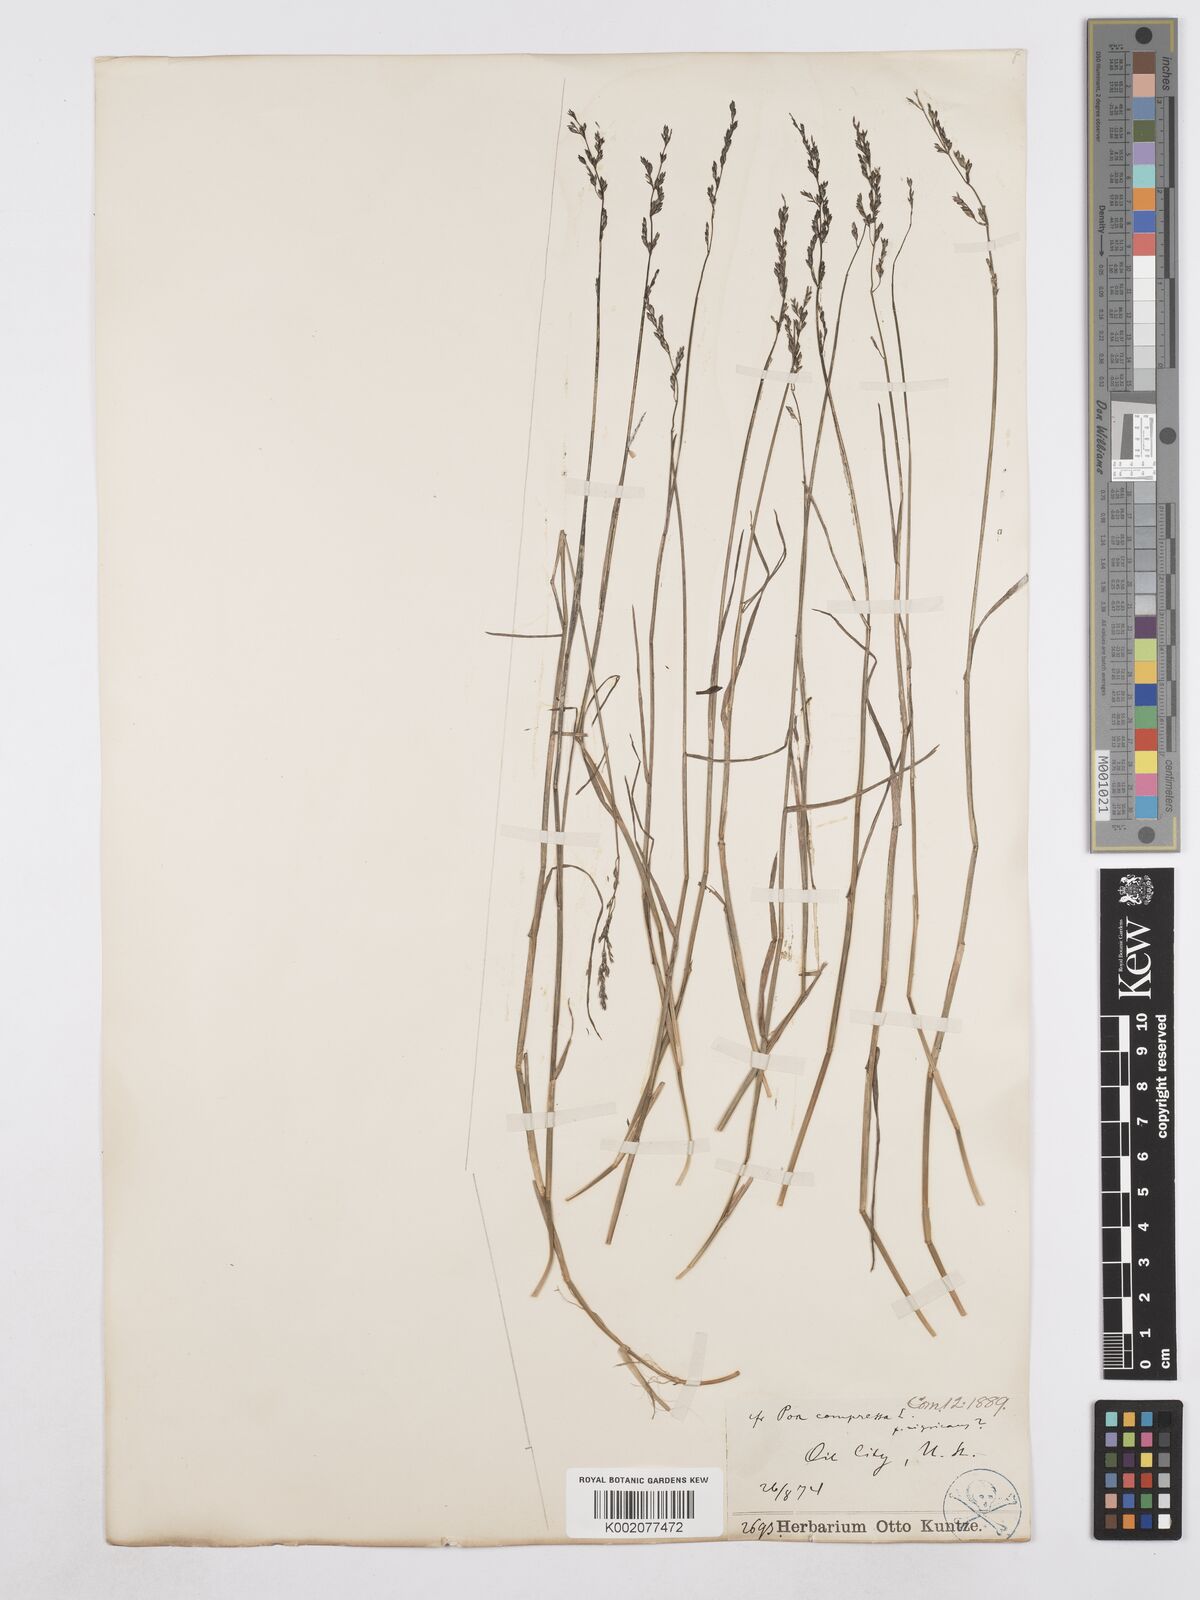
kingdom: Plantae
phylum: Tracheophyta
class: Liliopsida
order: Poales
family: Poaceae
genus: Poa
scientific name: Poa compressa
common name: Canada bluegrass
